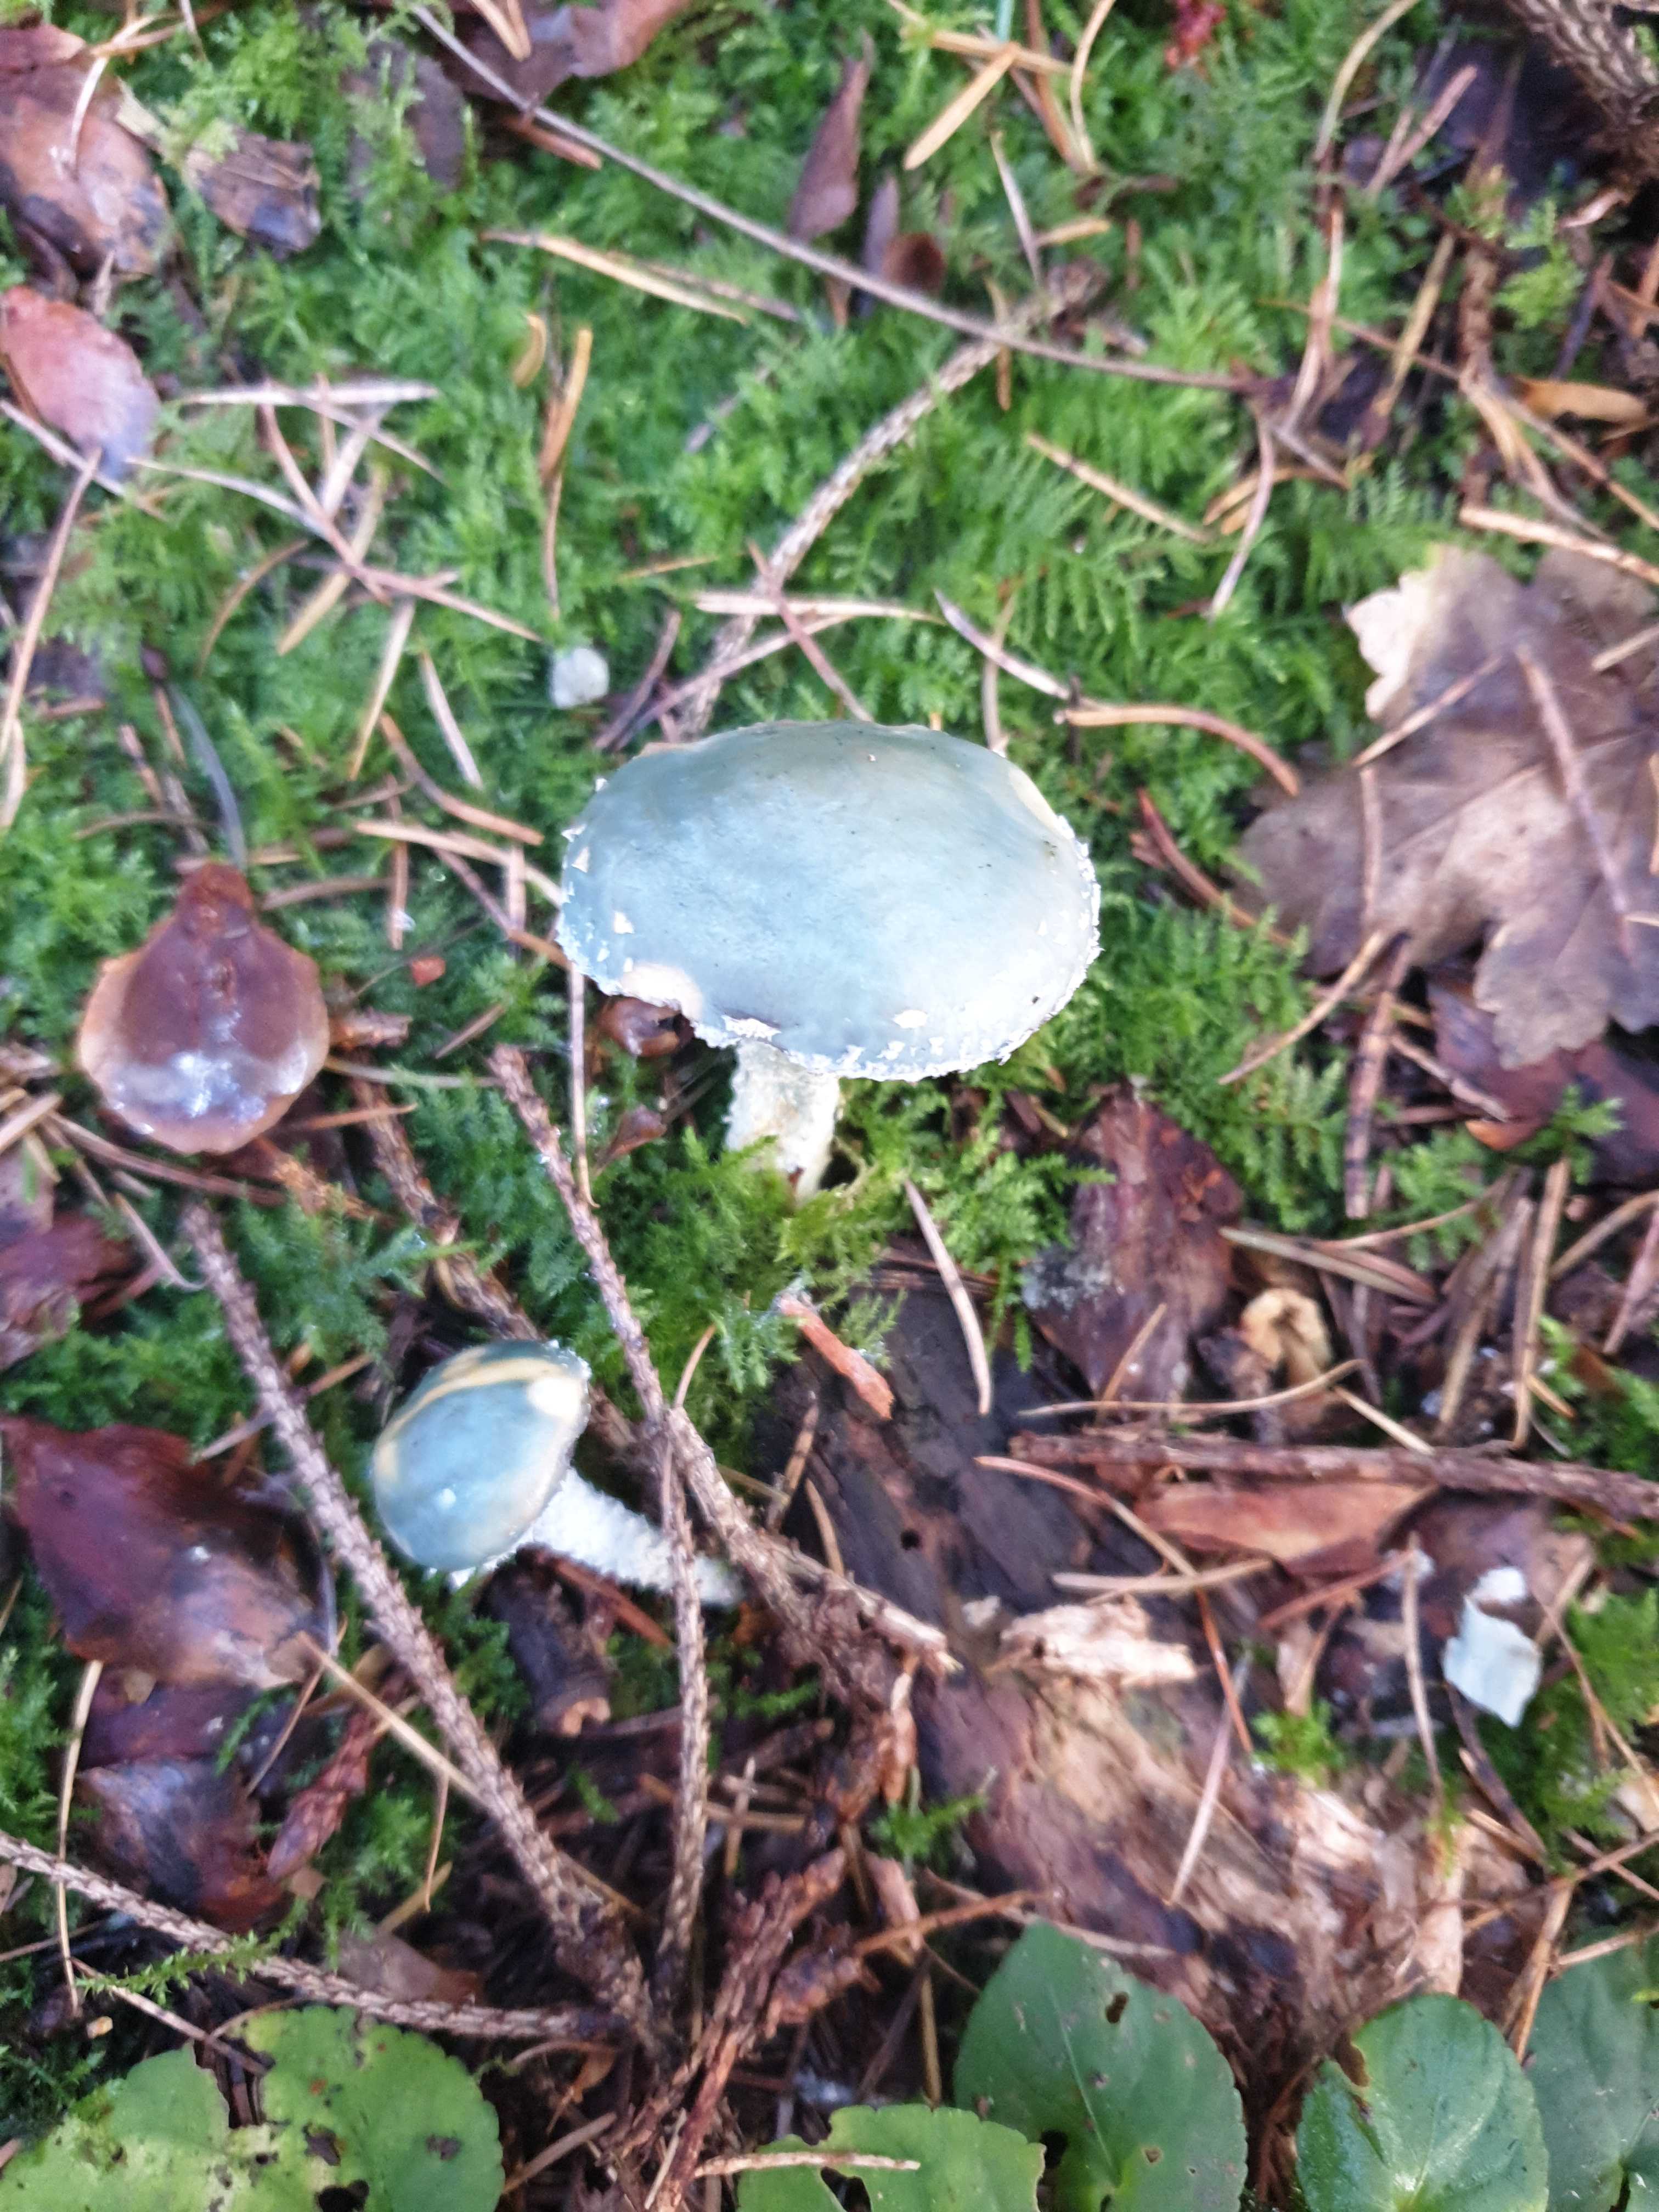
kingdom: Fungi
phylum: Basidiomycota
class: Agaricomycetes
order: Agaricales
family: Strophariaceae
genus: Stropharia
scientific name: Stropharia aeruginosa
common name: spanskgrøn bredblad
